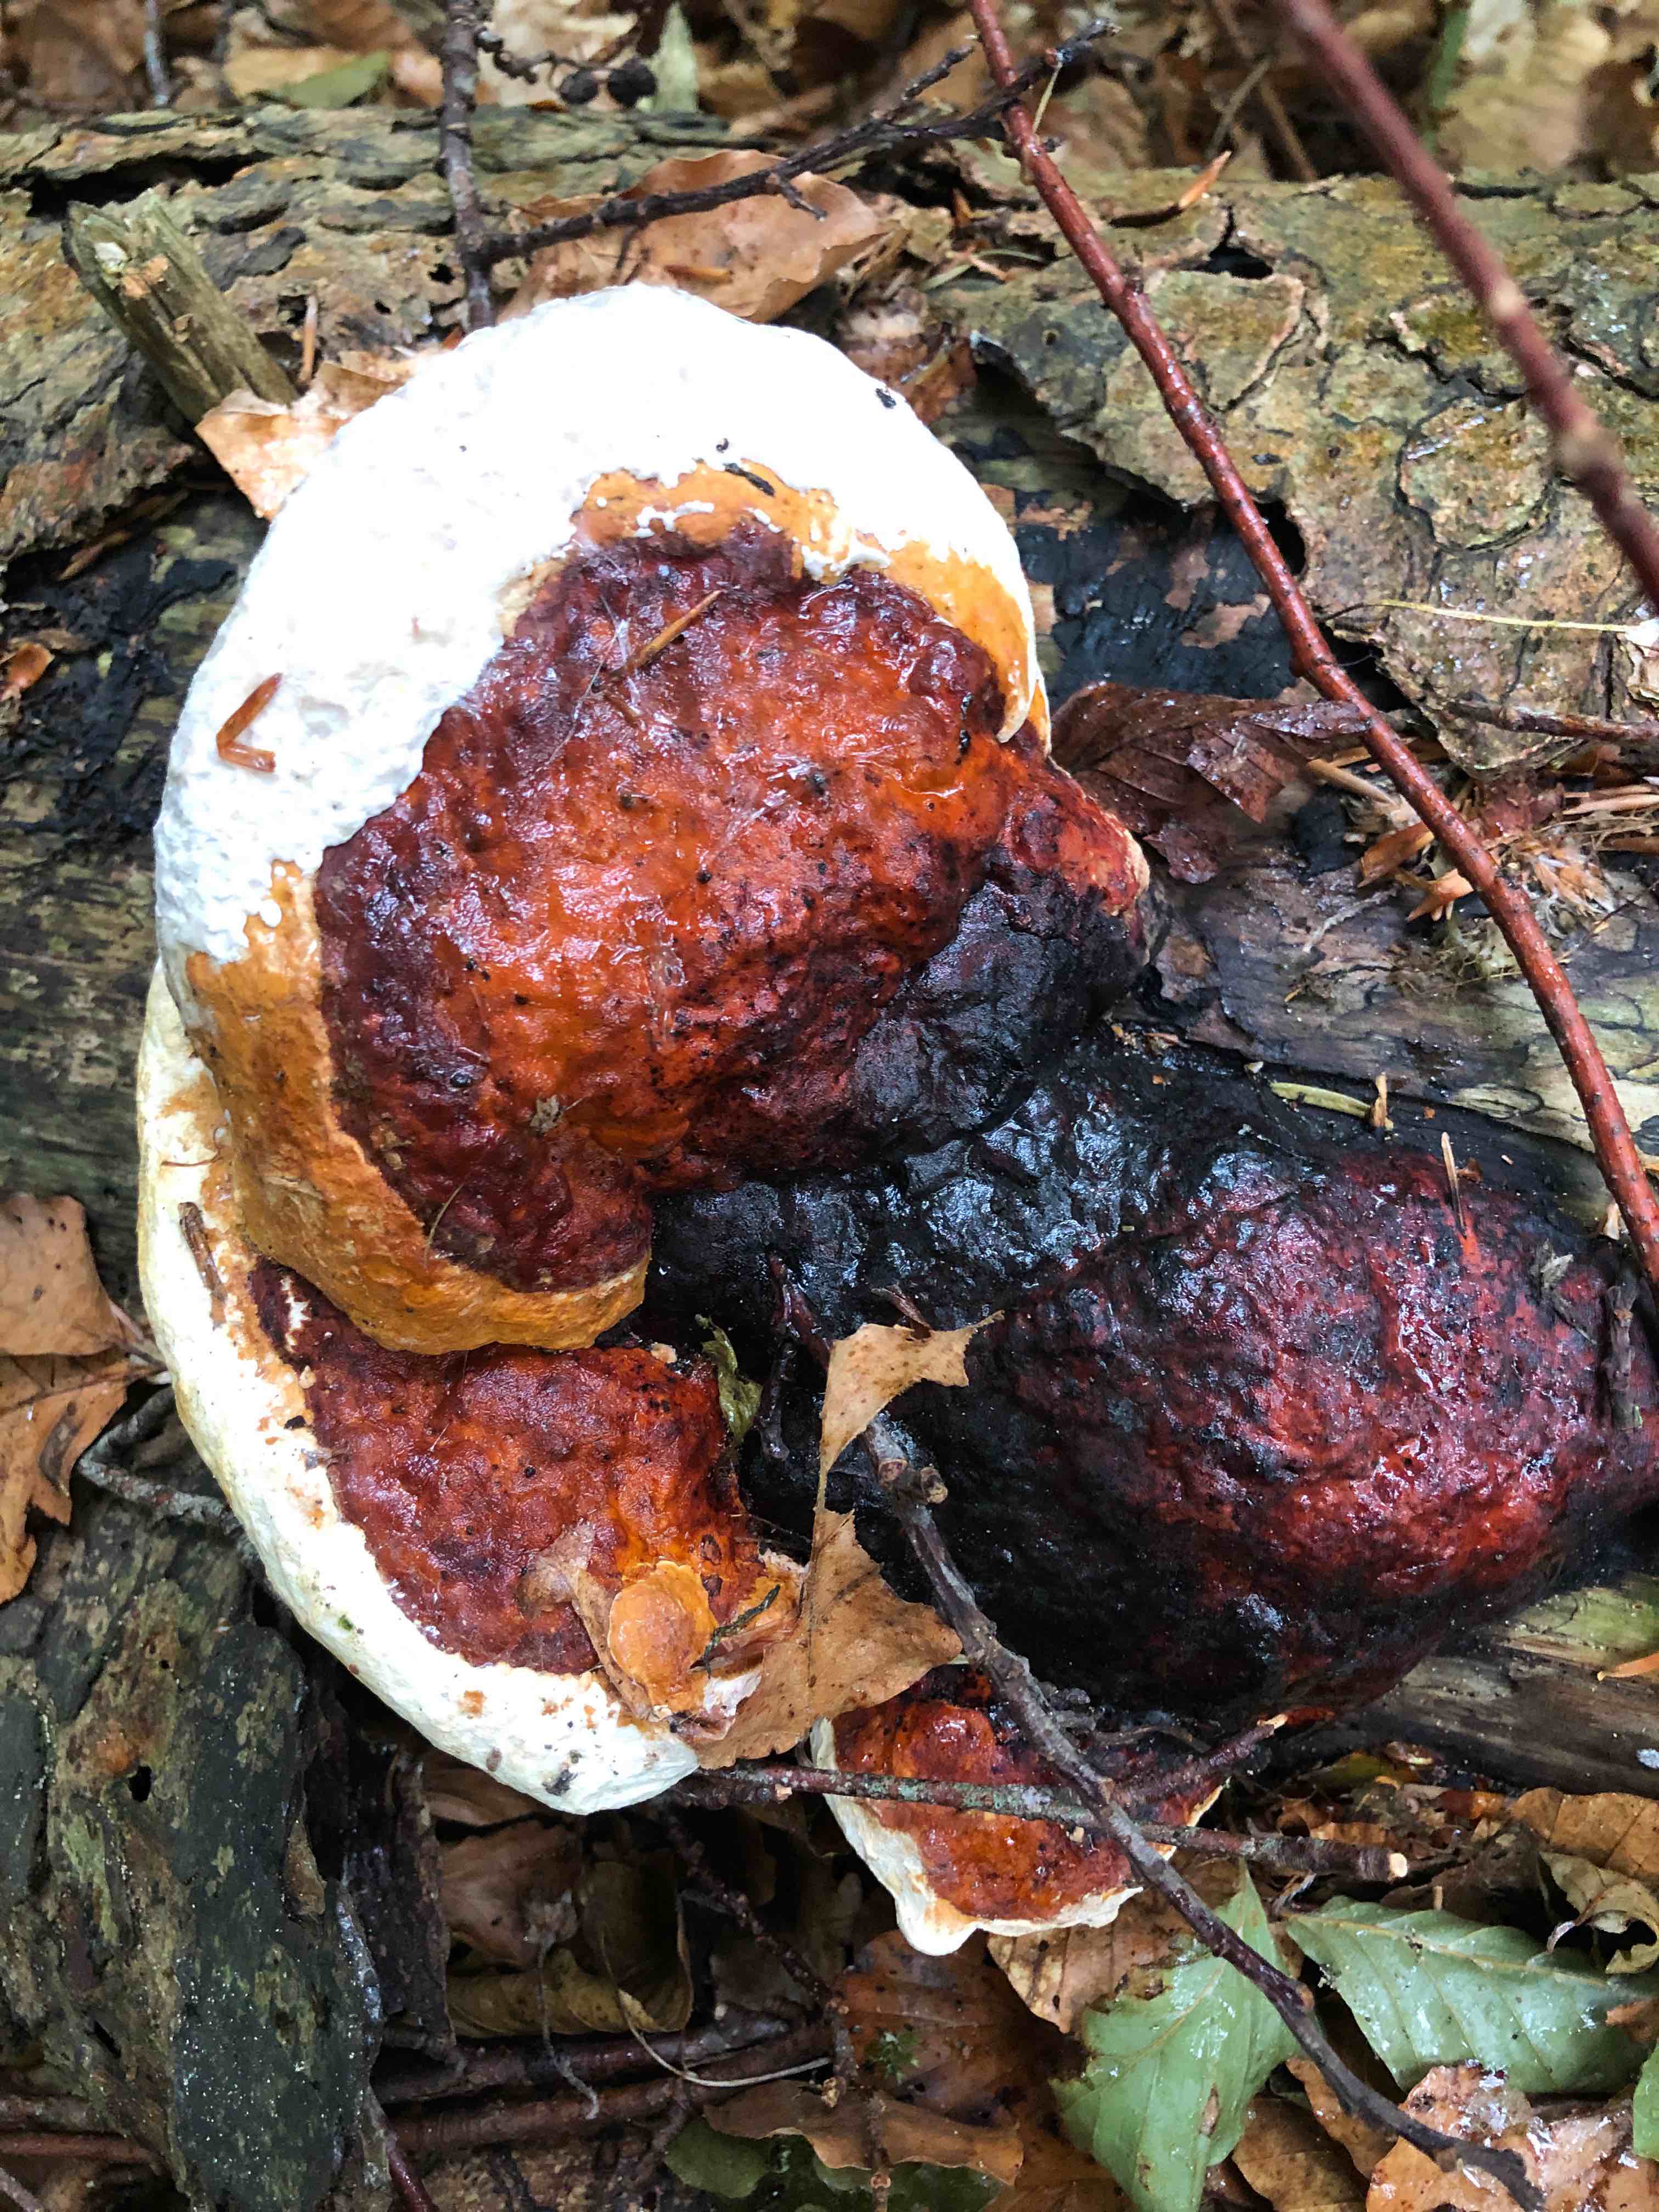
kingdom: Fungi
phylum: Basidiomycota
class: Agaricomycetes
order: Polyporales
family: Fomitopsidaceae
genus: Fomitopsis
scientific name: Fomitopsis pinicola
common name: randbæltet hovporesvamp
